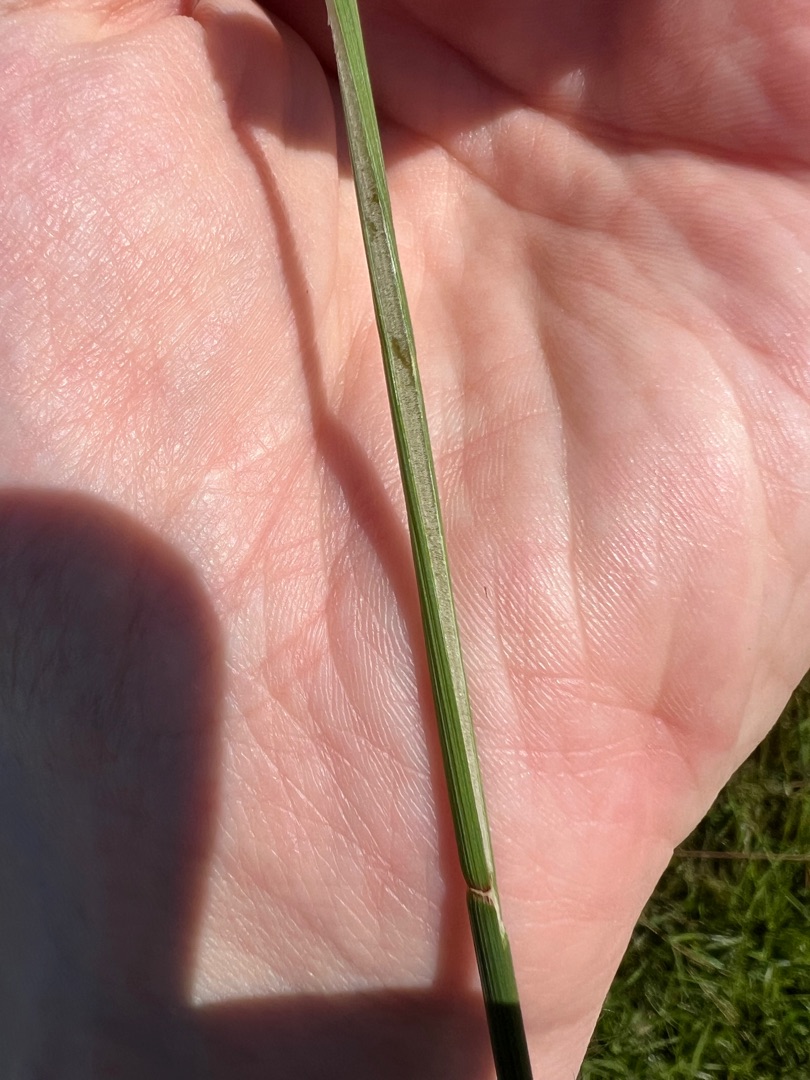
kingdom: Plantae
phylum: Tracheophyta
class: Liliopsida
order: Poales
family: Juncaceae
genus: Juncus
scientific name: Juncus conglomeratus
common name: Knop-siv
